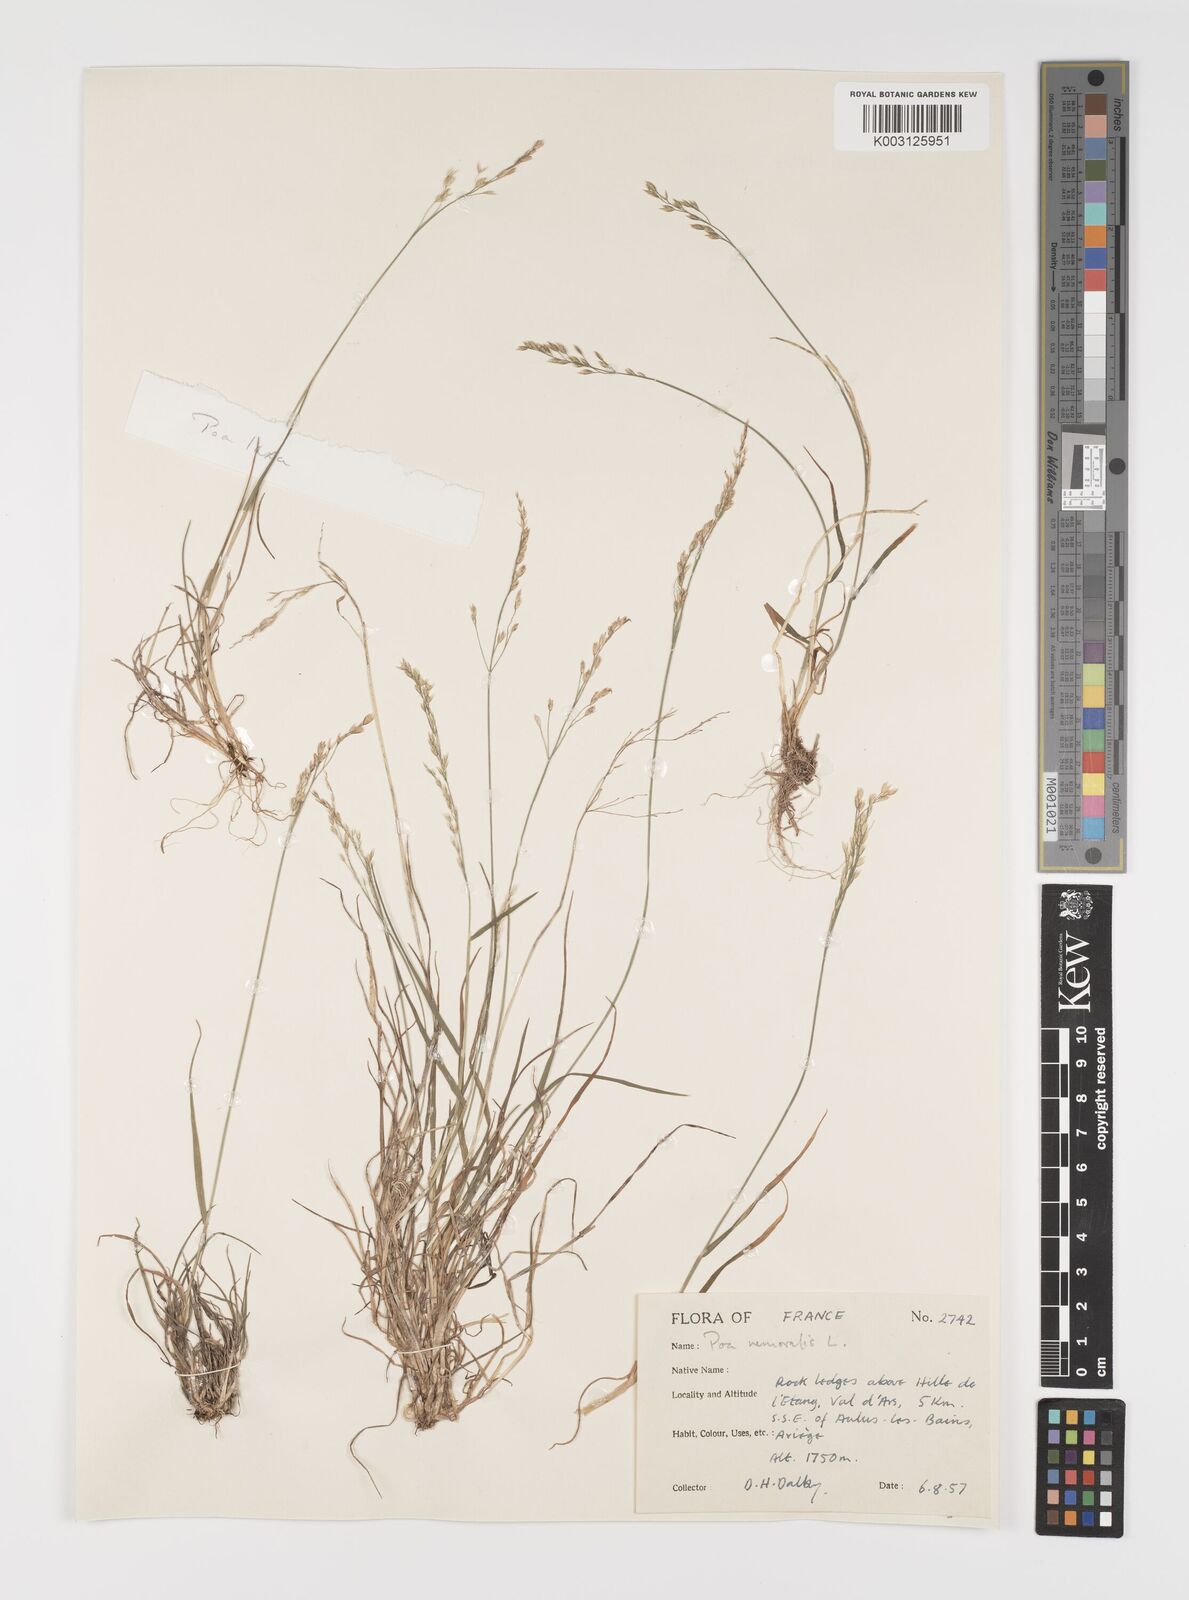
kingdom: Plantae
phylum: Tracheophyta
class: Liliopsida
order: Poales
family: Poaceae
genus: Poa
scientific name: Poa laxa
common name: Lax bluegrass
